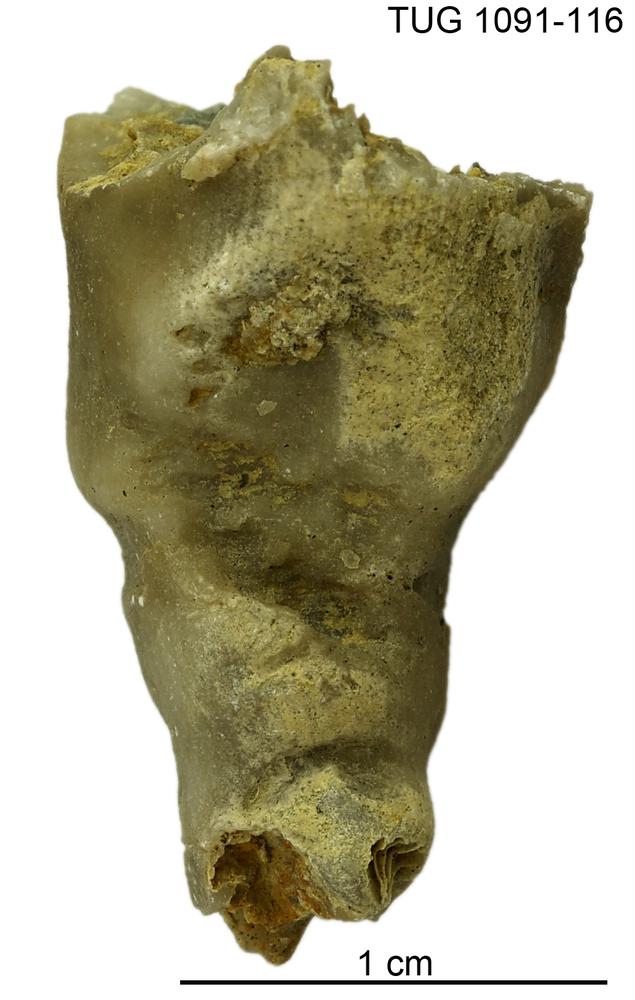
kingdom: Animalia
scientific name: Animalia
